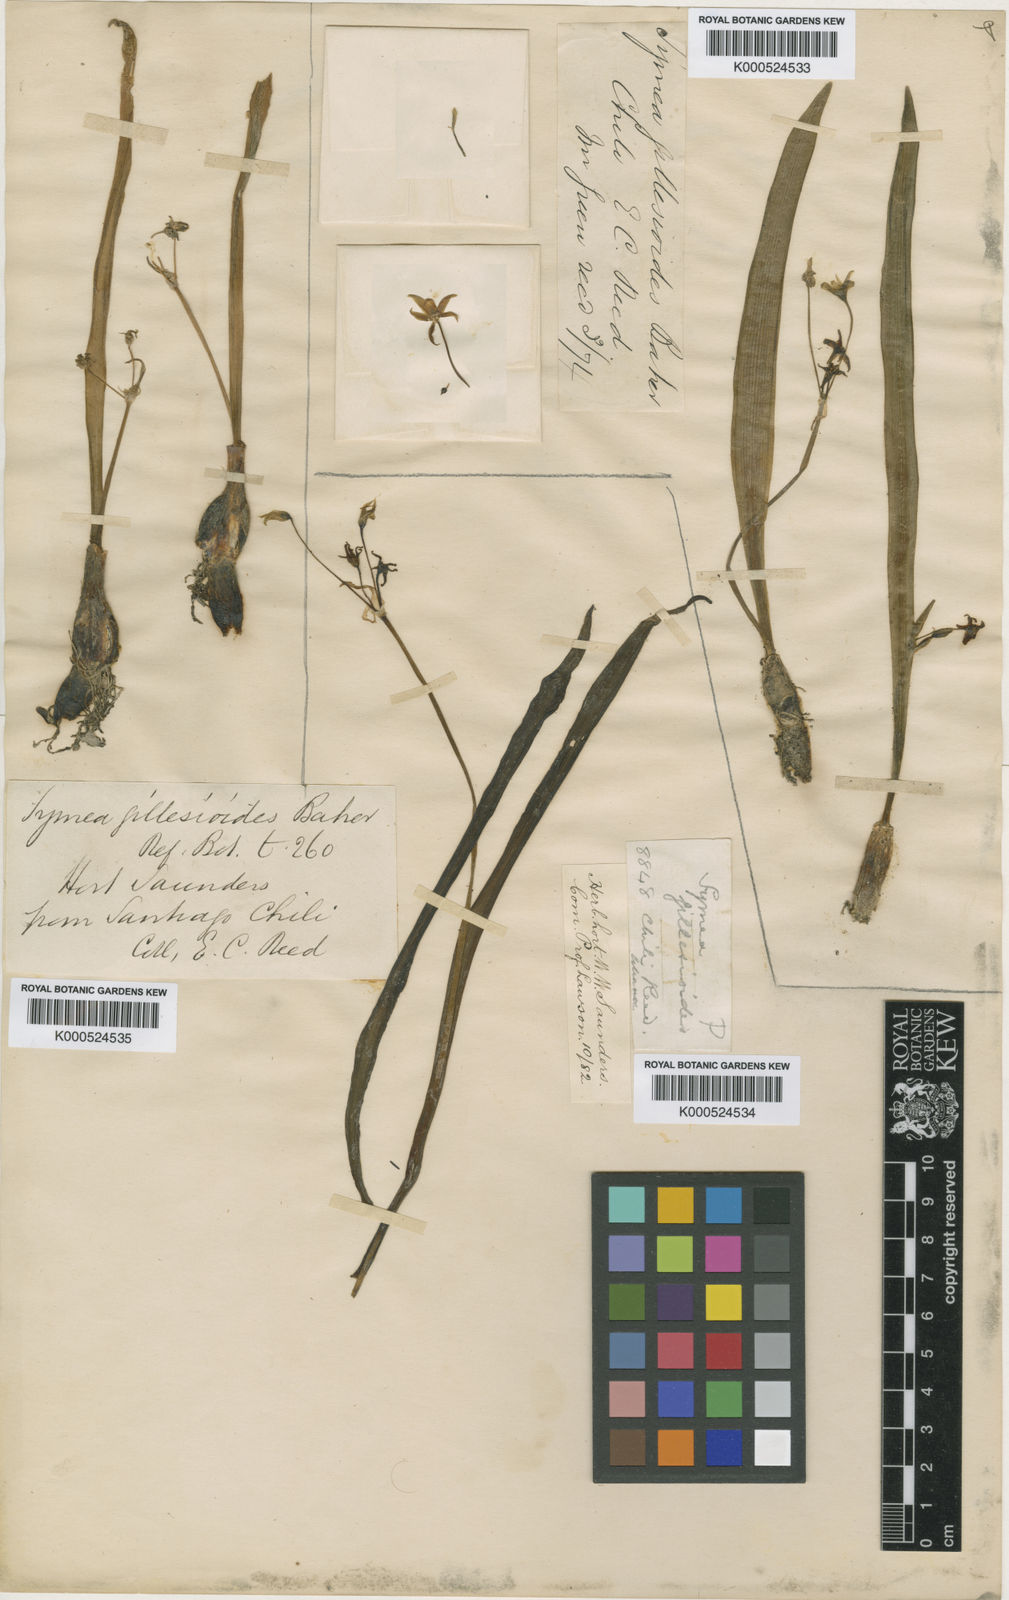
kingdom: Plantae
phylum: Tracheophyta
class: Liliopsida
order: Asparagales
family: Amaryllidaceae
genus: Gilliesia
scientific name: Gilliesia miersioides
